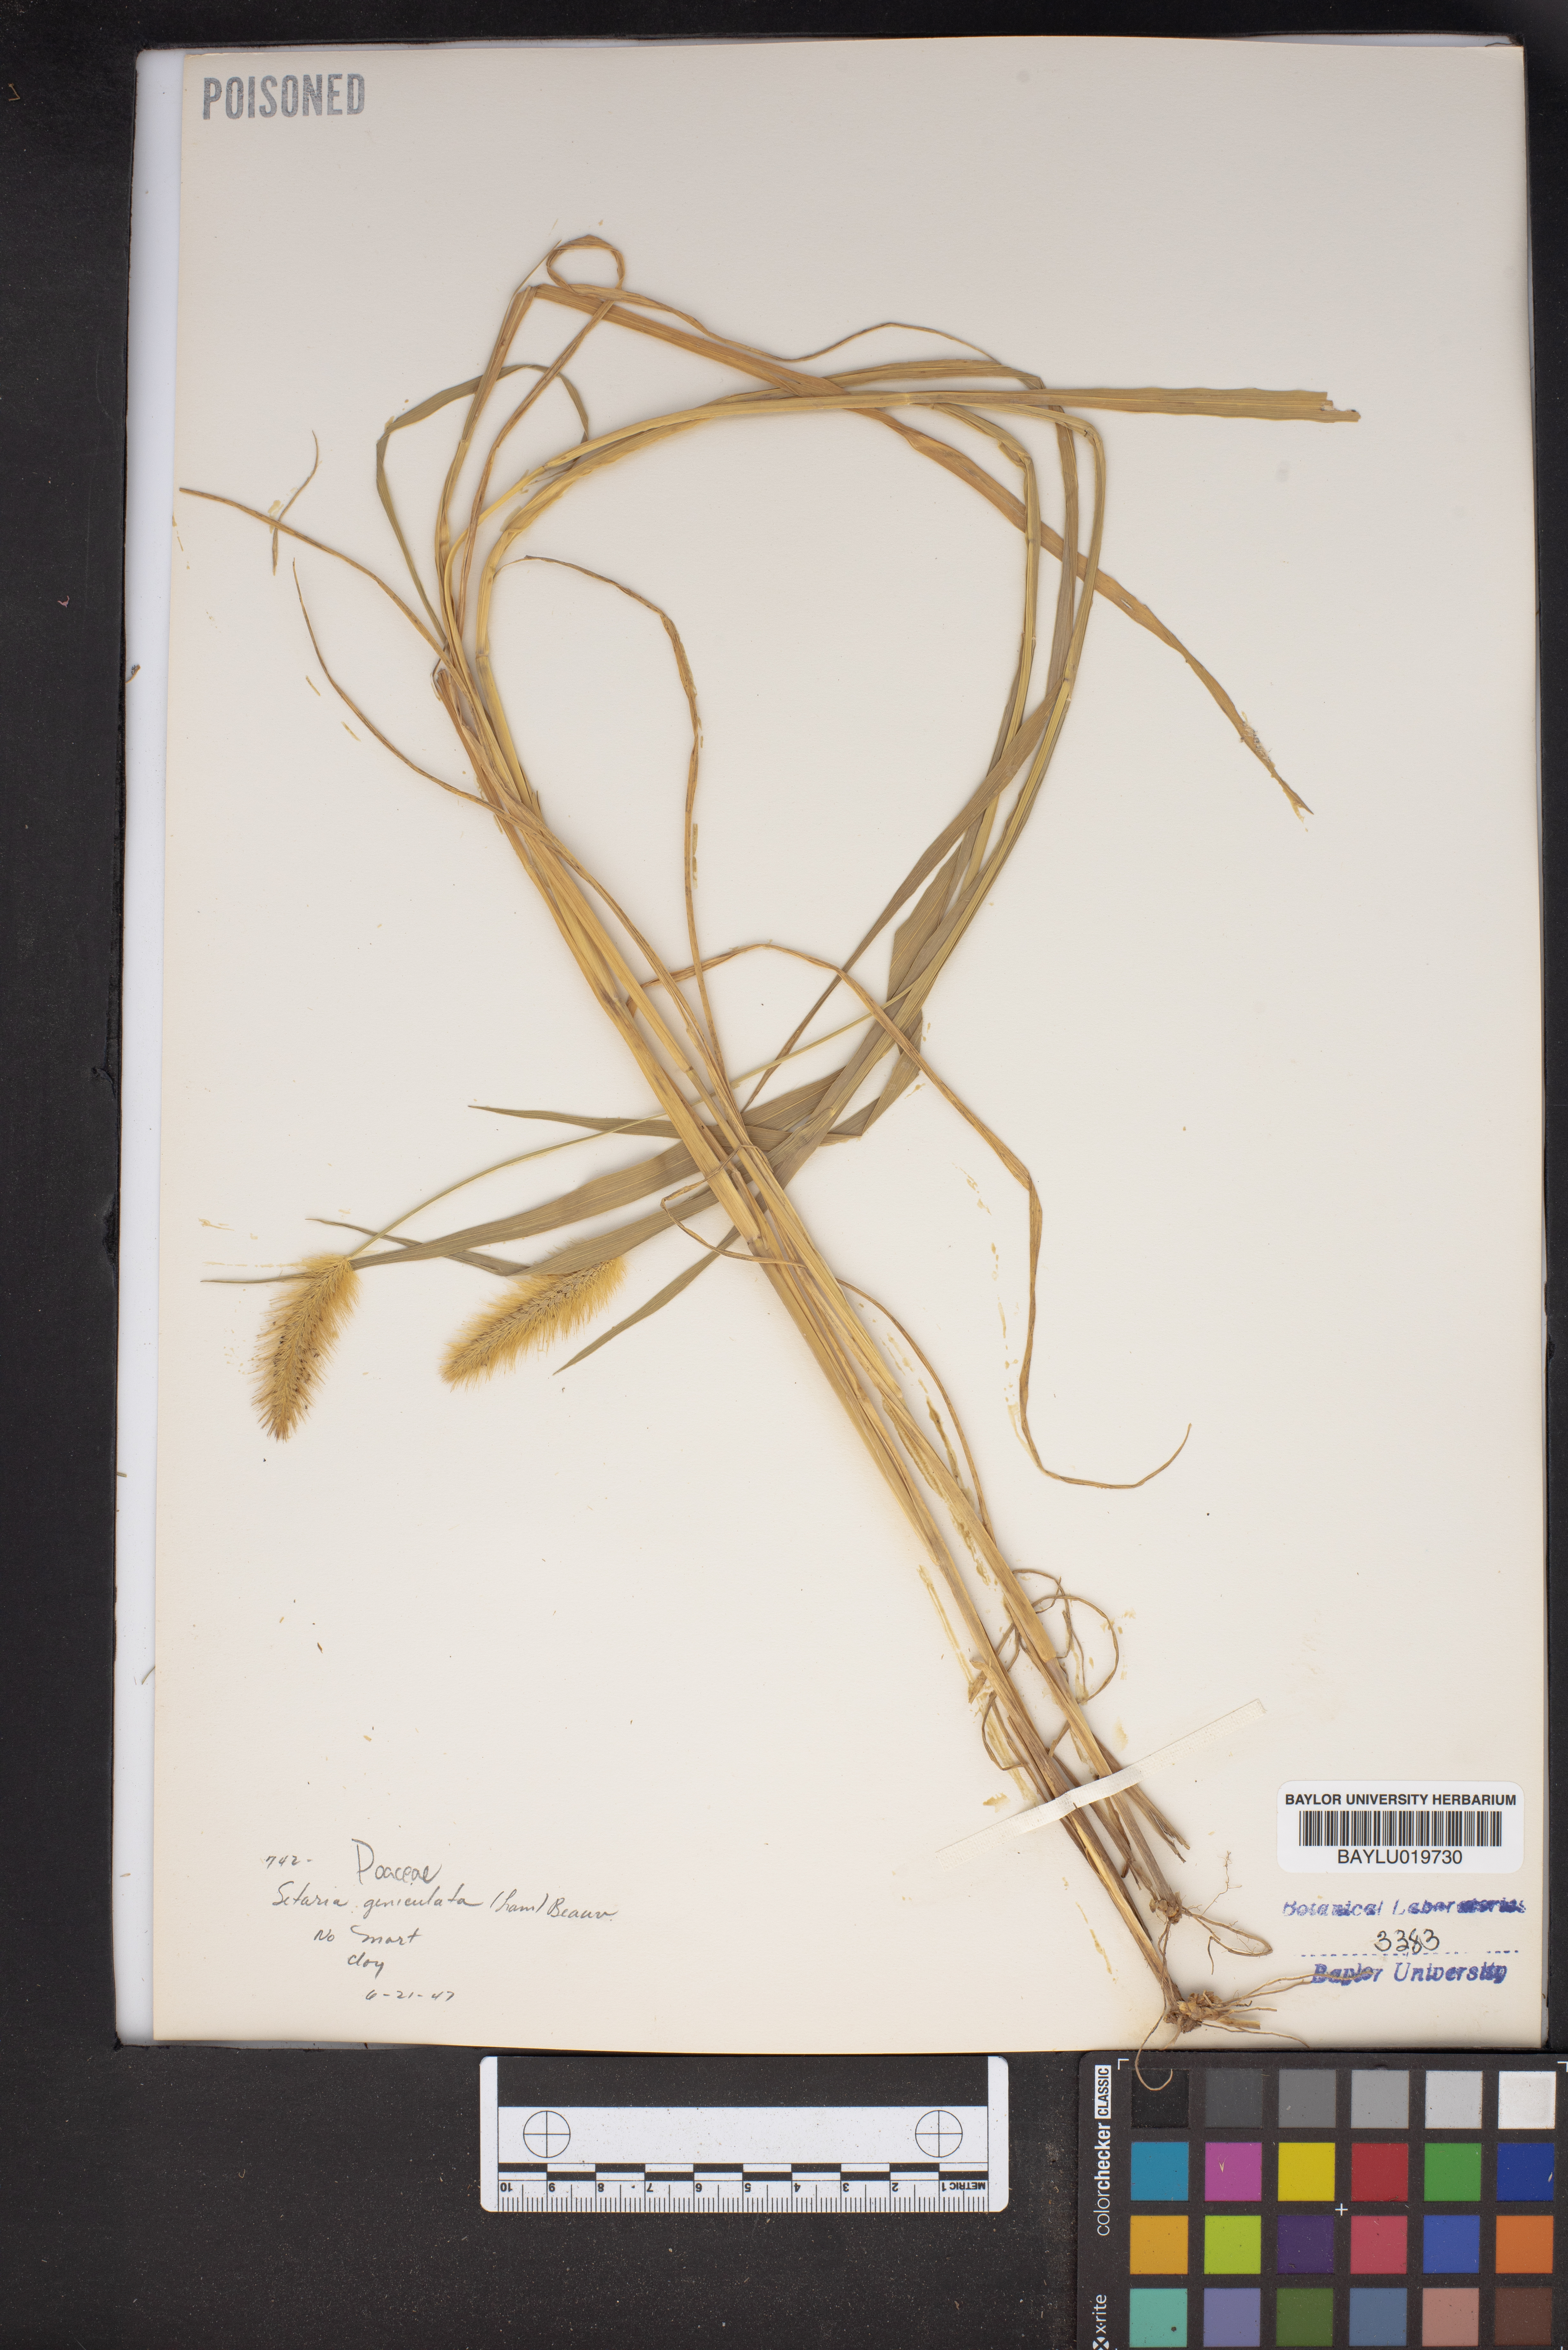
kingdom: Plantae
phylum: Tracheophyta
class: Liliopsida
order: Poales
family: Poaceae
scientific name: Poaceae
